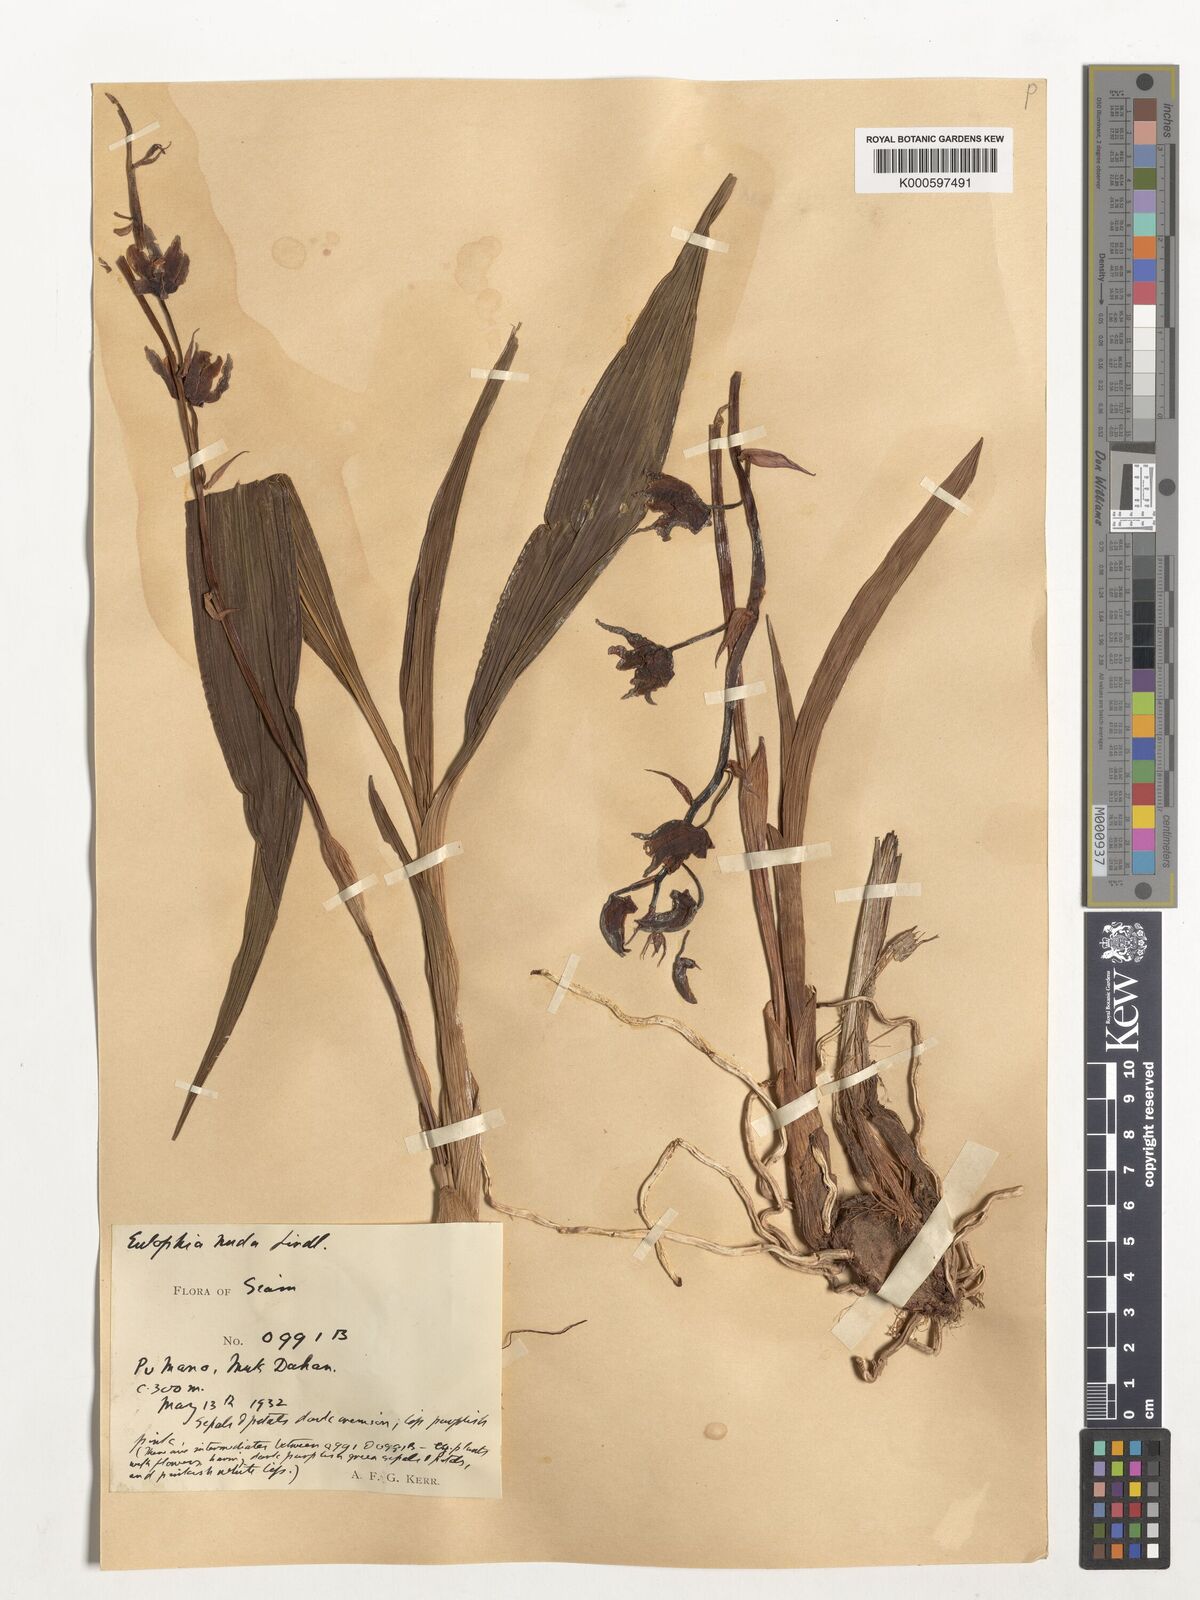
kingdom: Plantae
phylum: Tracheophyta
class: Liliopsida
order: Asparagales
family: Orchidaceae
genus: Eulophia
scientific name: Eulophia nuda
